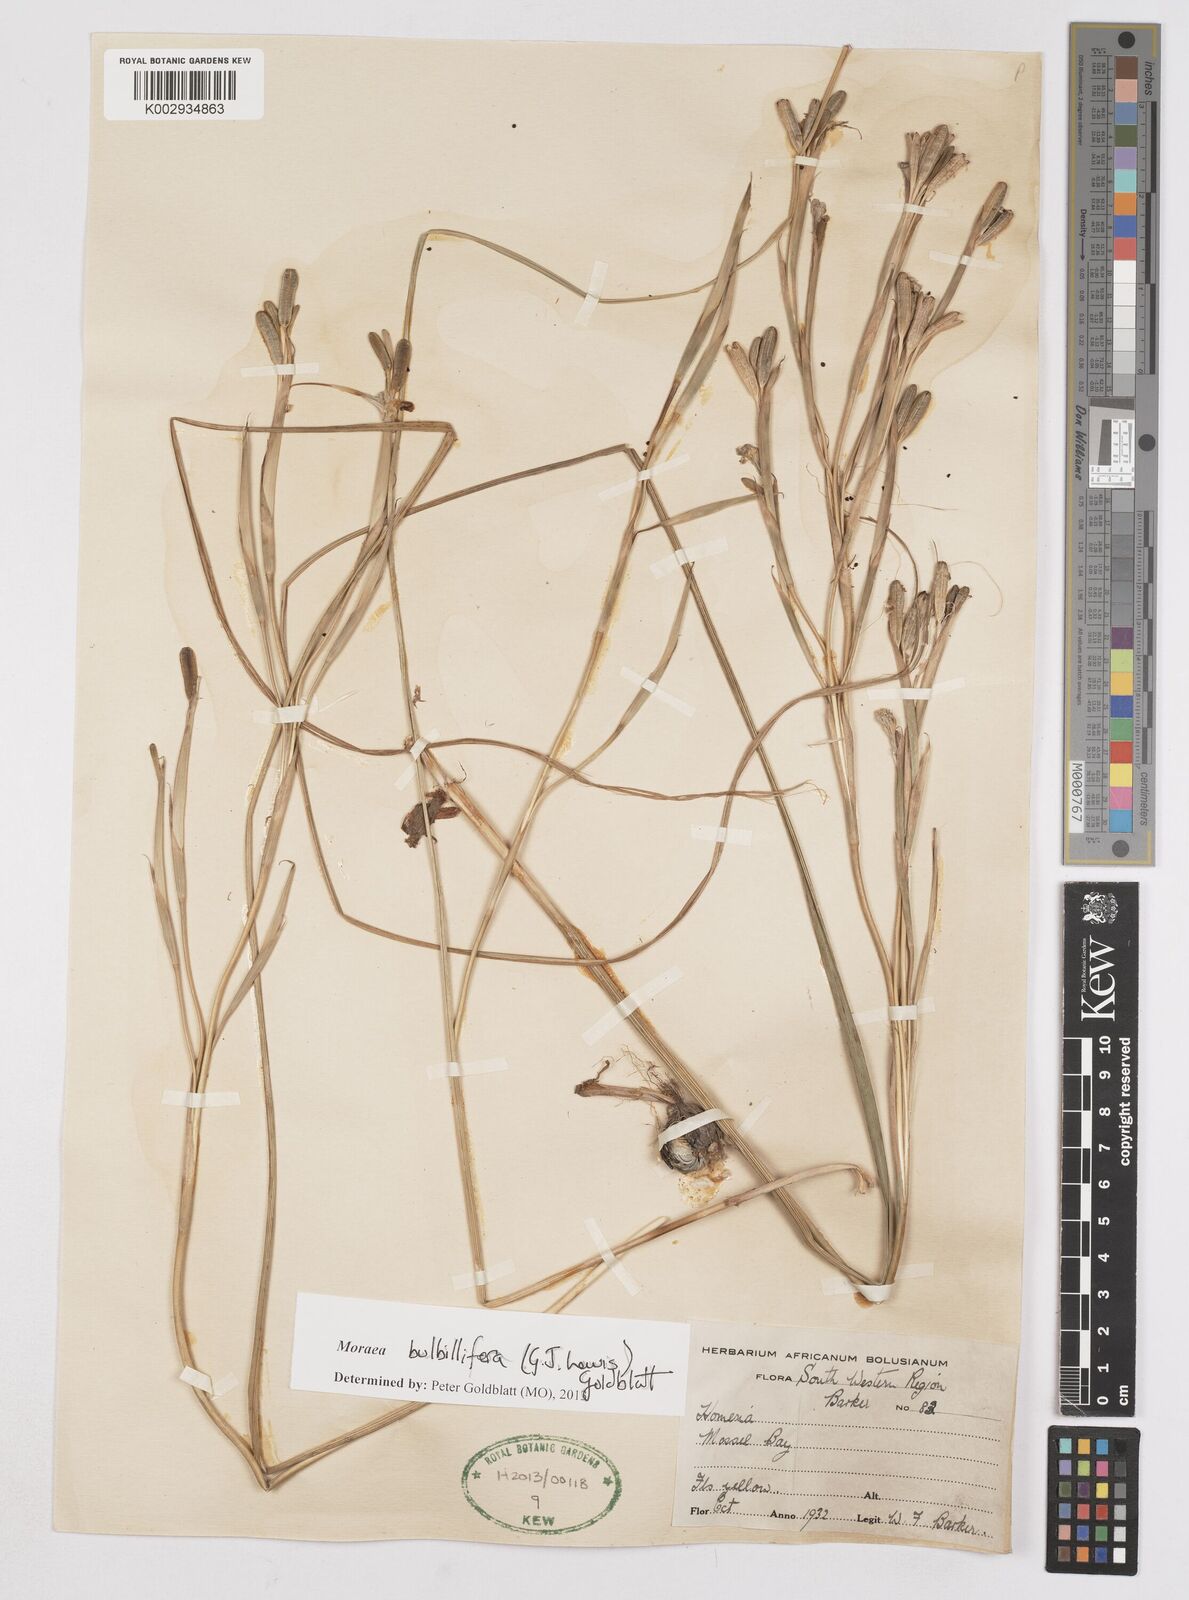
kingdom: Plantae
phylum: Tracheophyta
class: Liliopsida
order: Asparagales
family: Iridaceae
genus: Moraea
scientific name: Moraea bulbillifera
